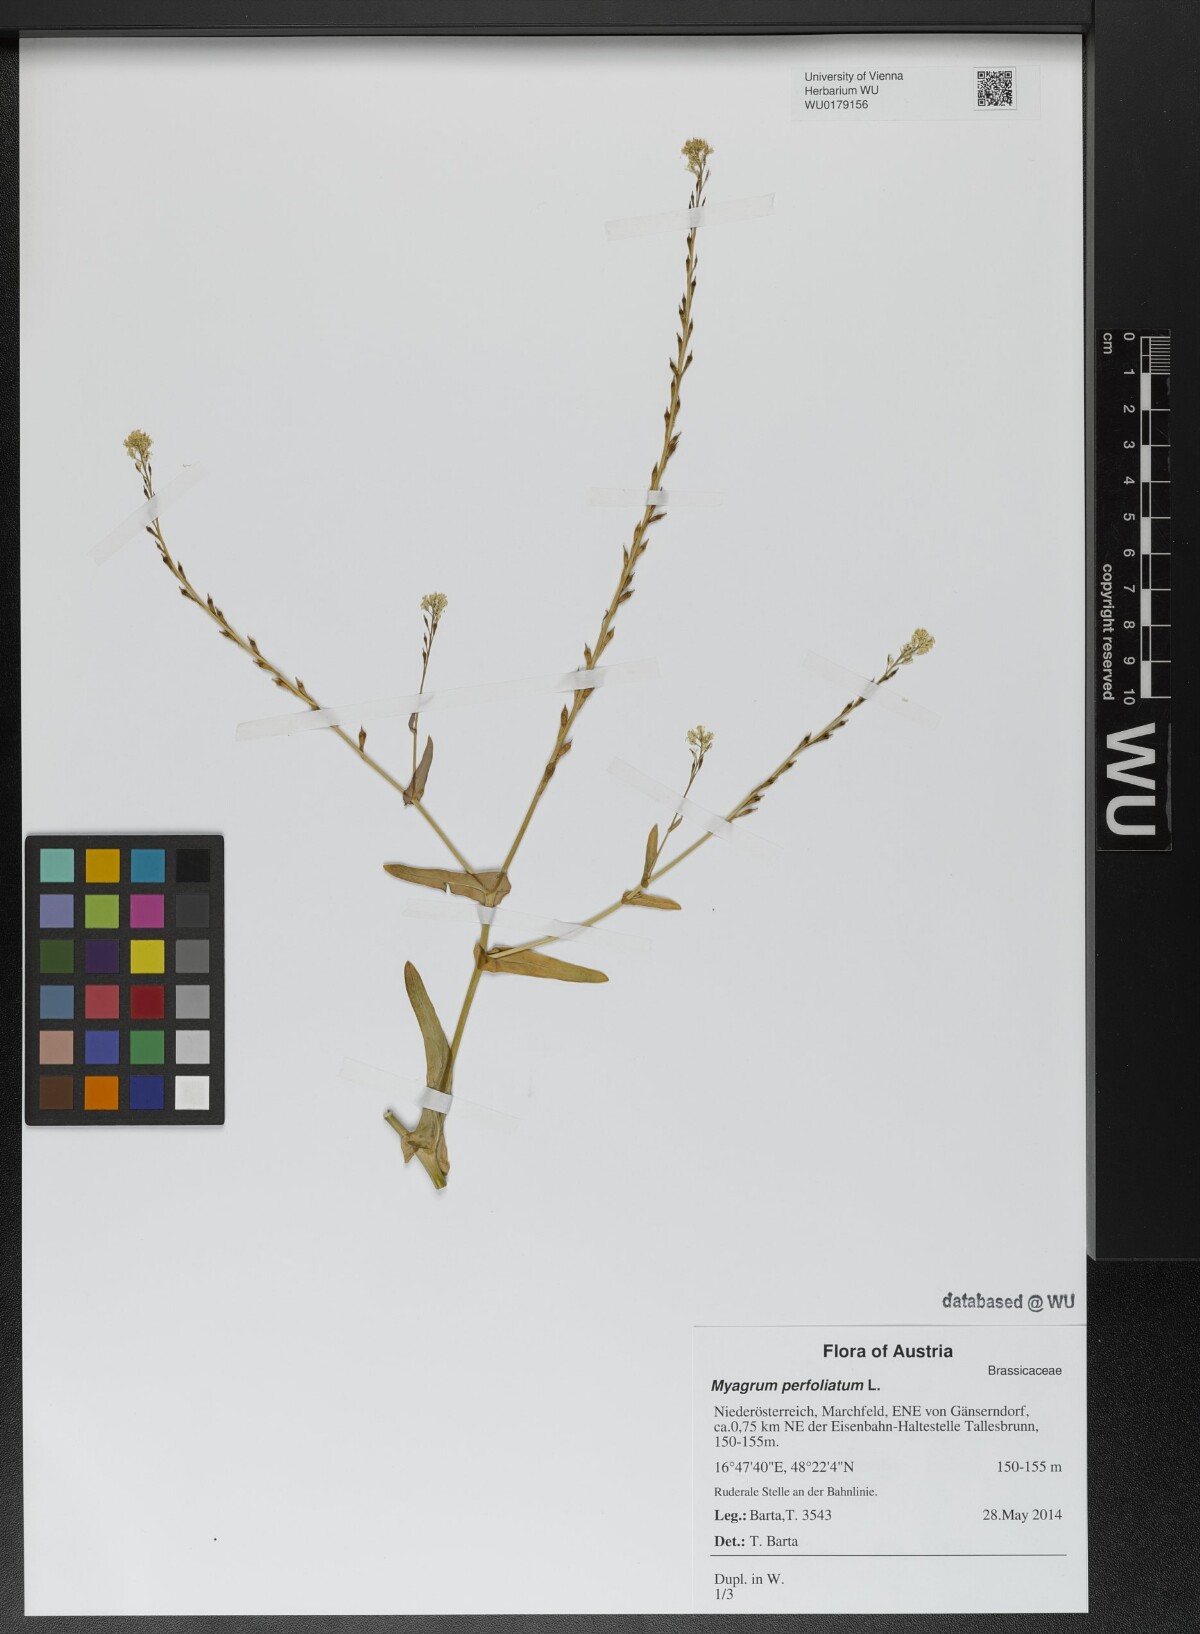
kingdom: Plantae
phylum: Tracheophyta
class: Magnoliopsida
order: Brassicales
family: Brassicaceae
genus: Myagrum
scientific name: Myagrum perfoliatum
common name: Mitre cress
